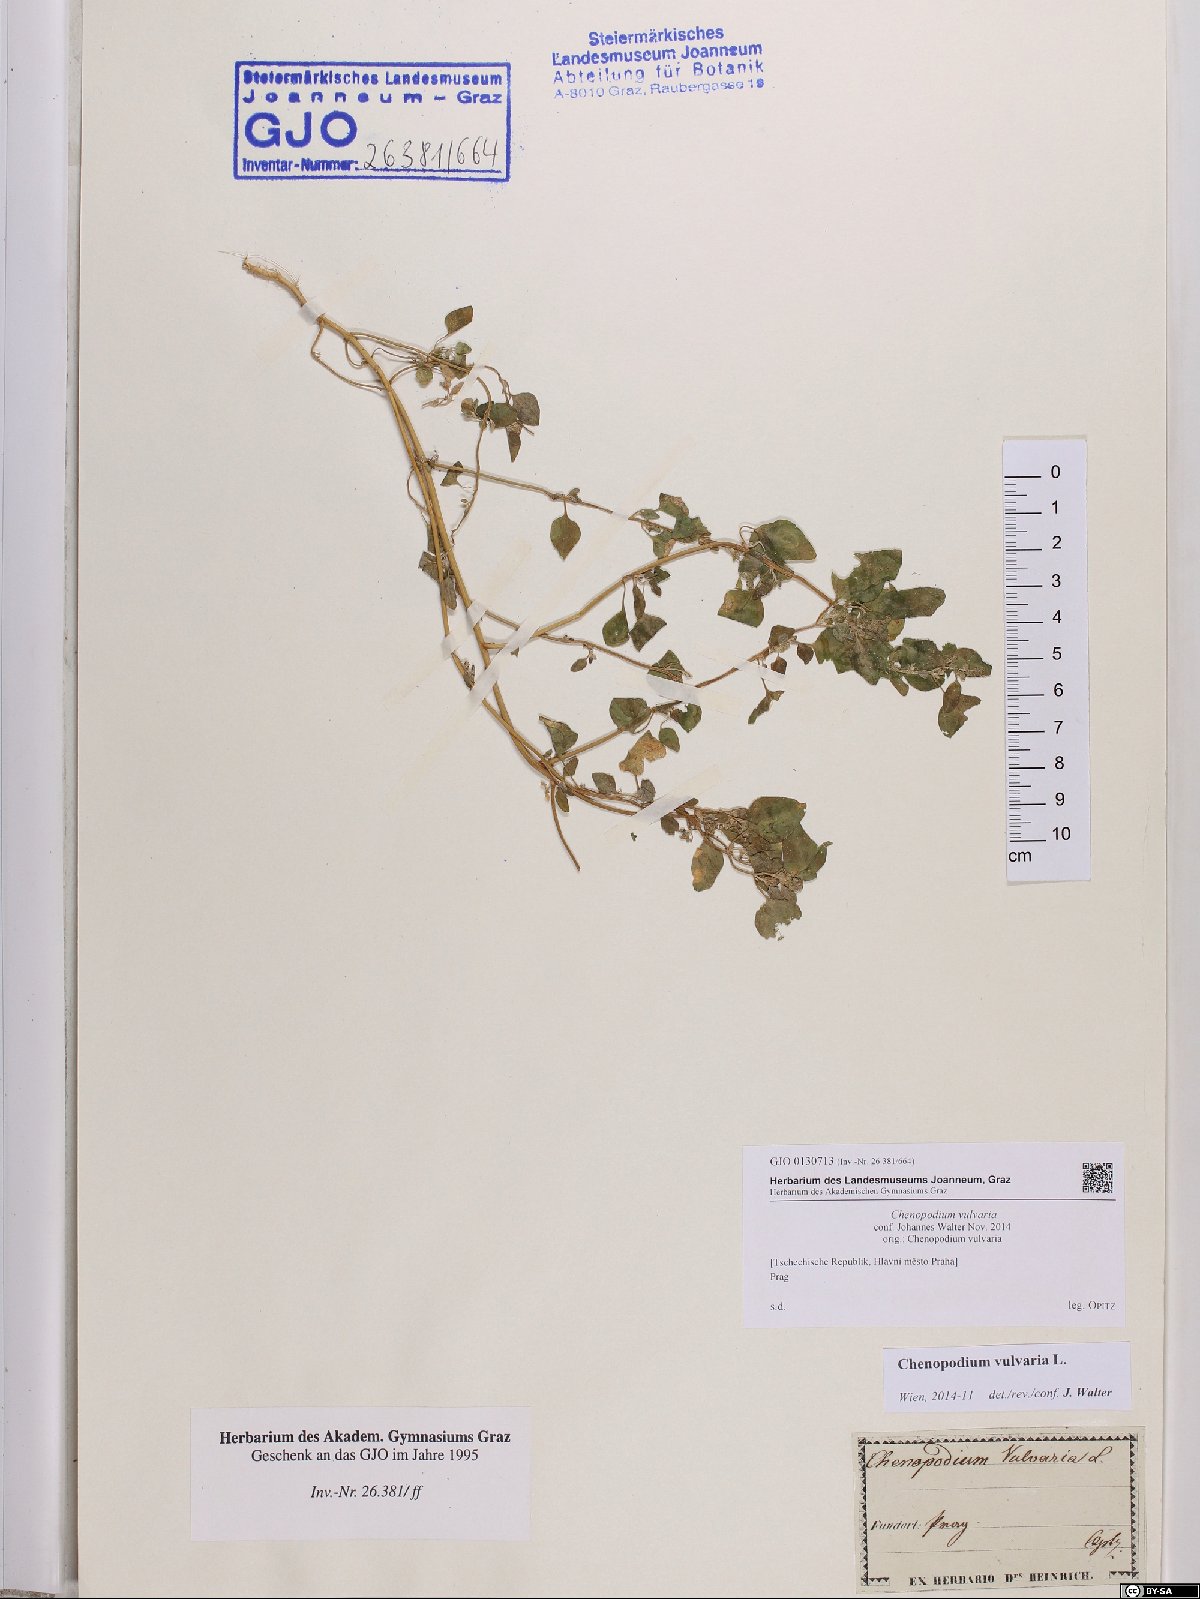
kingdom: Plantae
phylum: Tracheophyta
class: Magnoliopsida
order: Caryophyllales
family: Amaranthaceae
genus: Chenopodium
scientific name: Chenopodium vulvaria
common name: Stinking goosefoot
